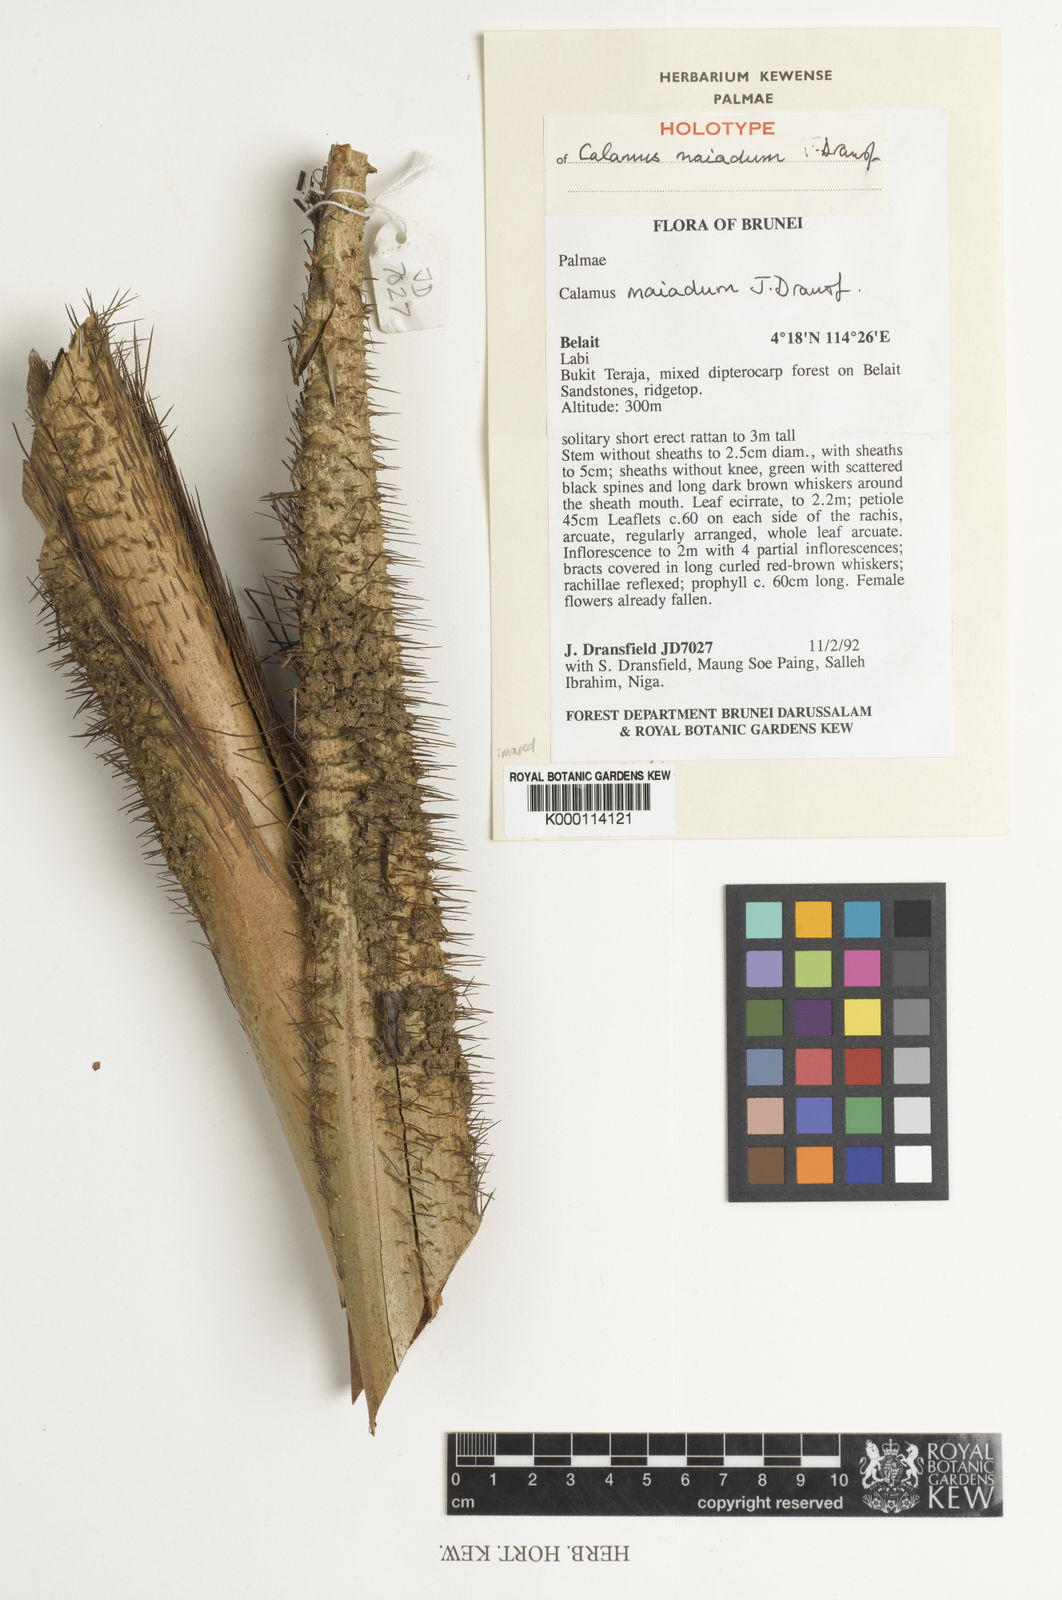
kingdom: Plantae
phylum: Tracheophyta
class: Liliopsida
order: Arecales
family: Arecaceae
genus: Calamus
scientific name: Calamus maiadum
